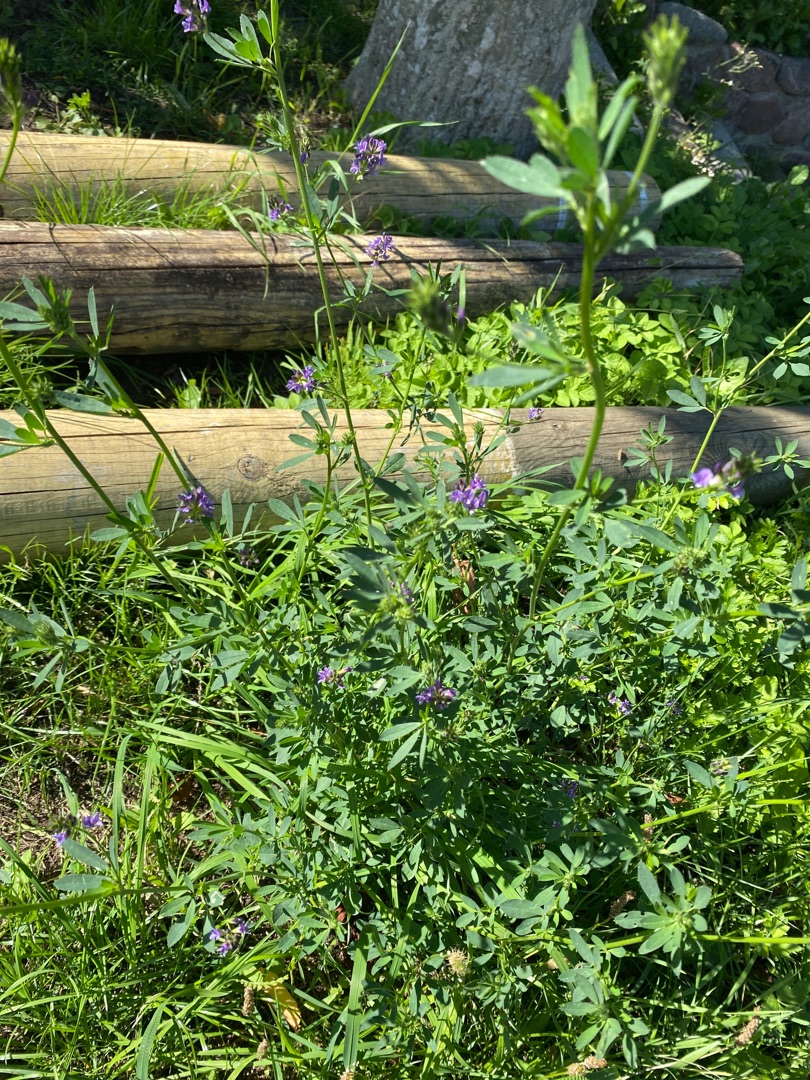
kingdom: Plantae
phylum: Tracheophyta
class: Magnoliopsida
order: Fabales
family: Fabaceae
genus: Medicago
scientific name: Medicago sativa
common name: Lucerne
